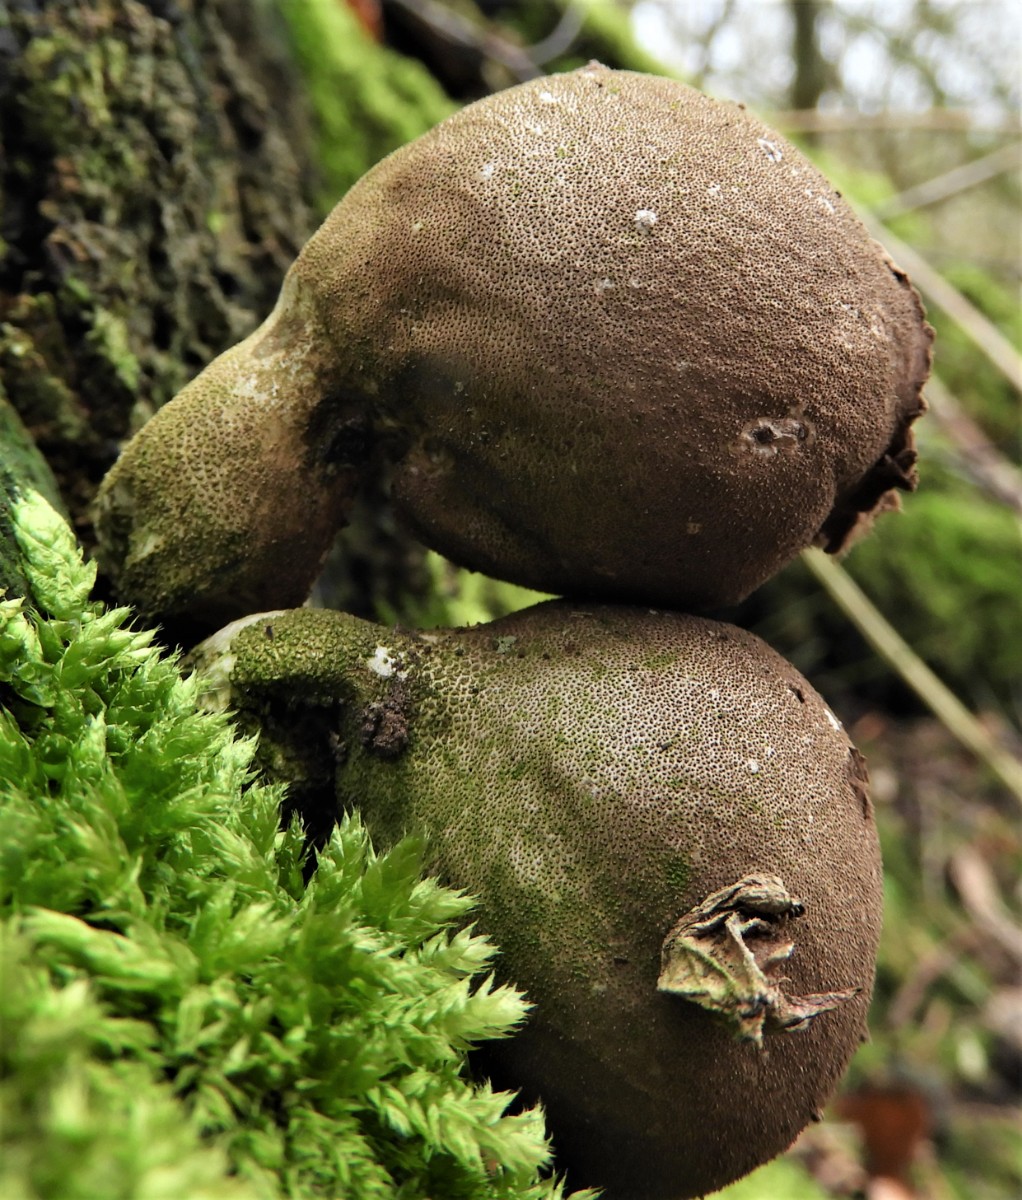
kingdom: Fungi
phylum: Basidiomycota
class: Agaricomycetes
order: Agaricales
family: Lycoperdaceae
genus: Apioperdon
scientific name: Apioperdon pyriforme
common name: pære-støvbold
